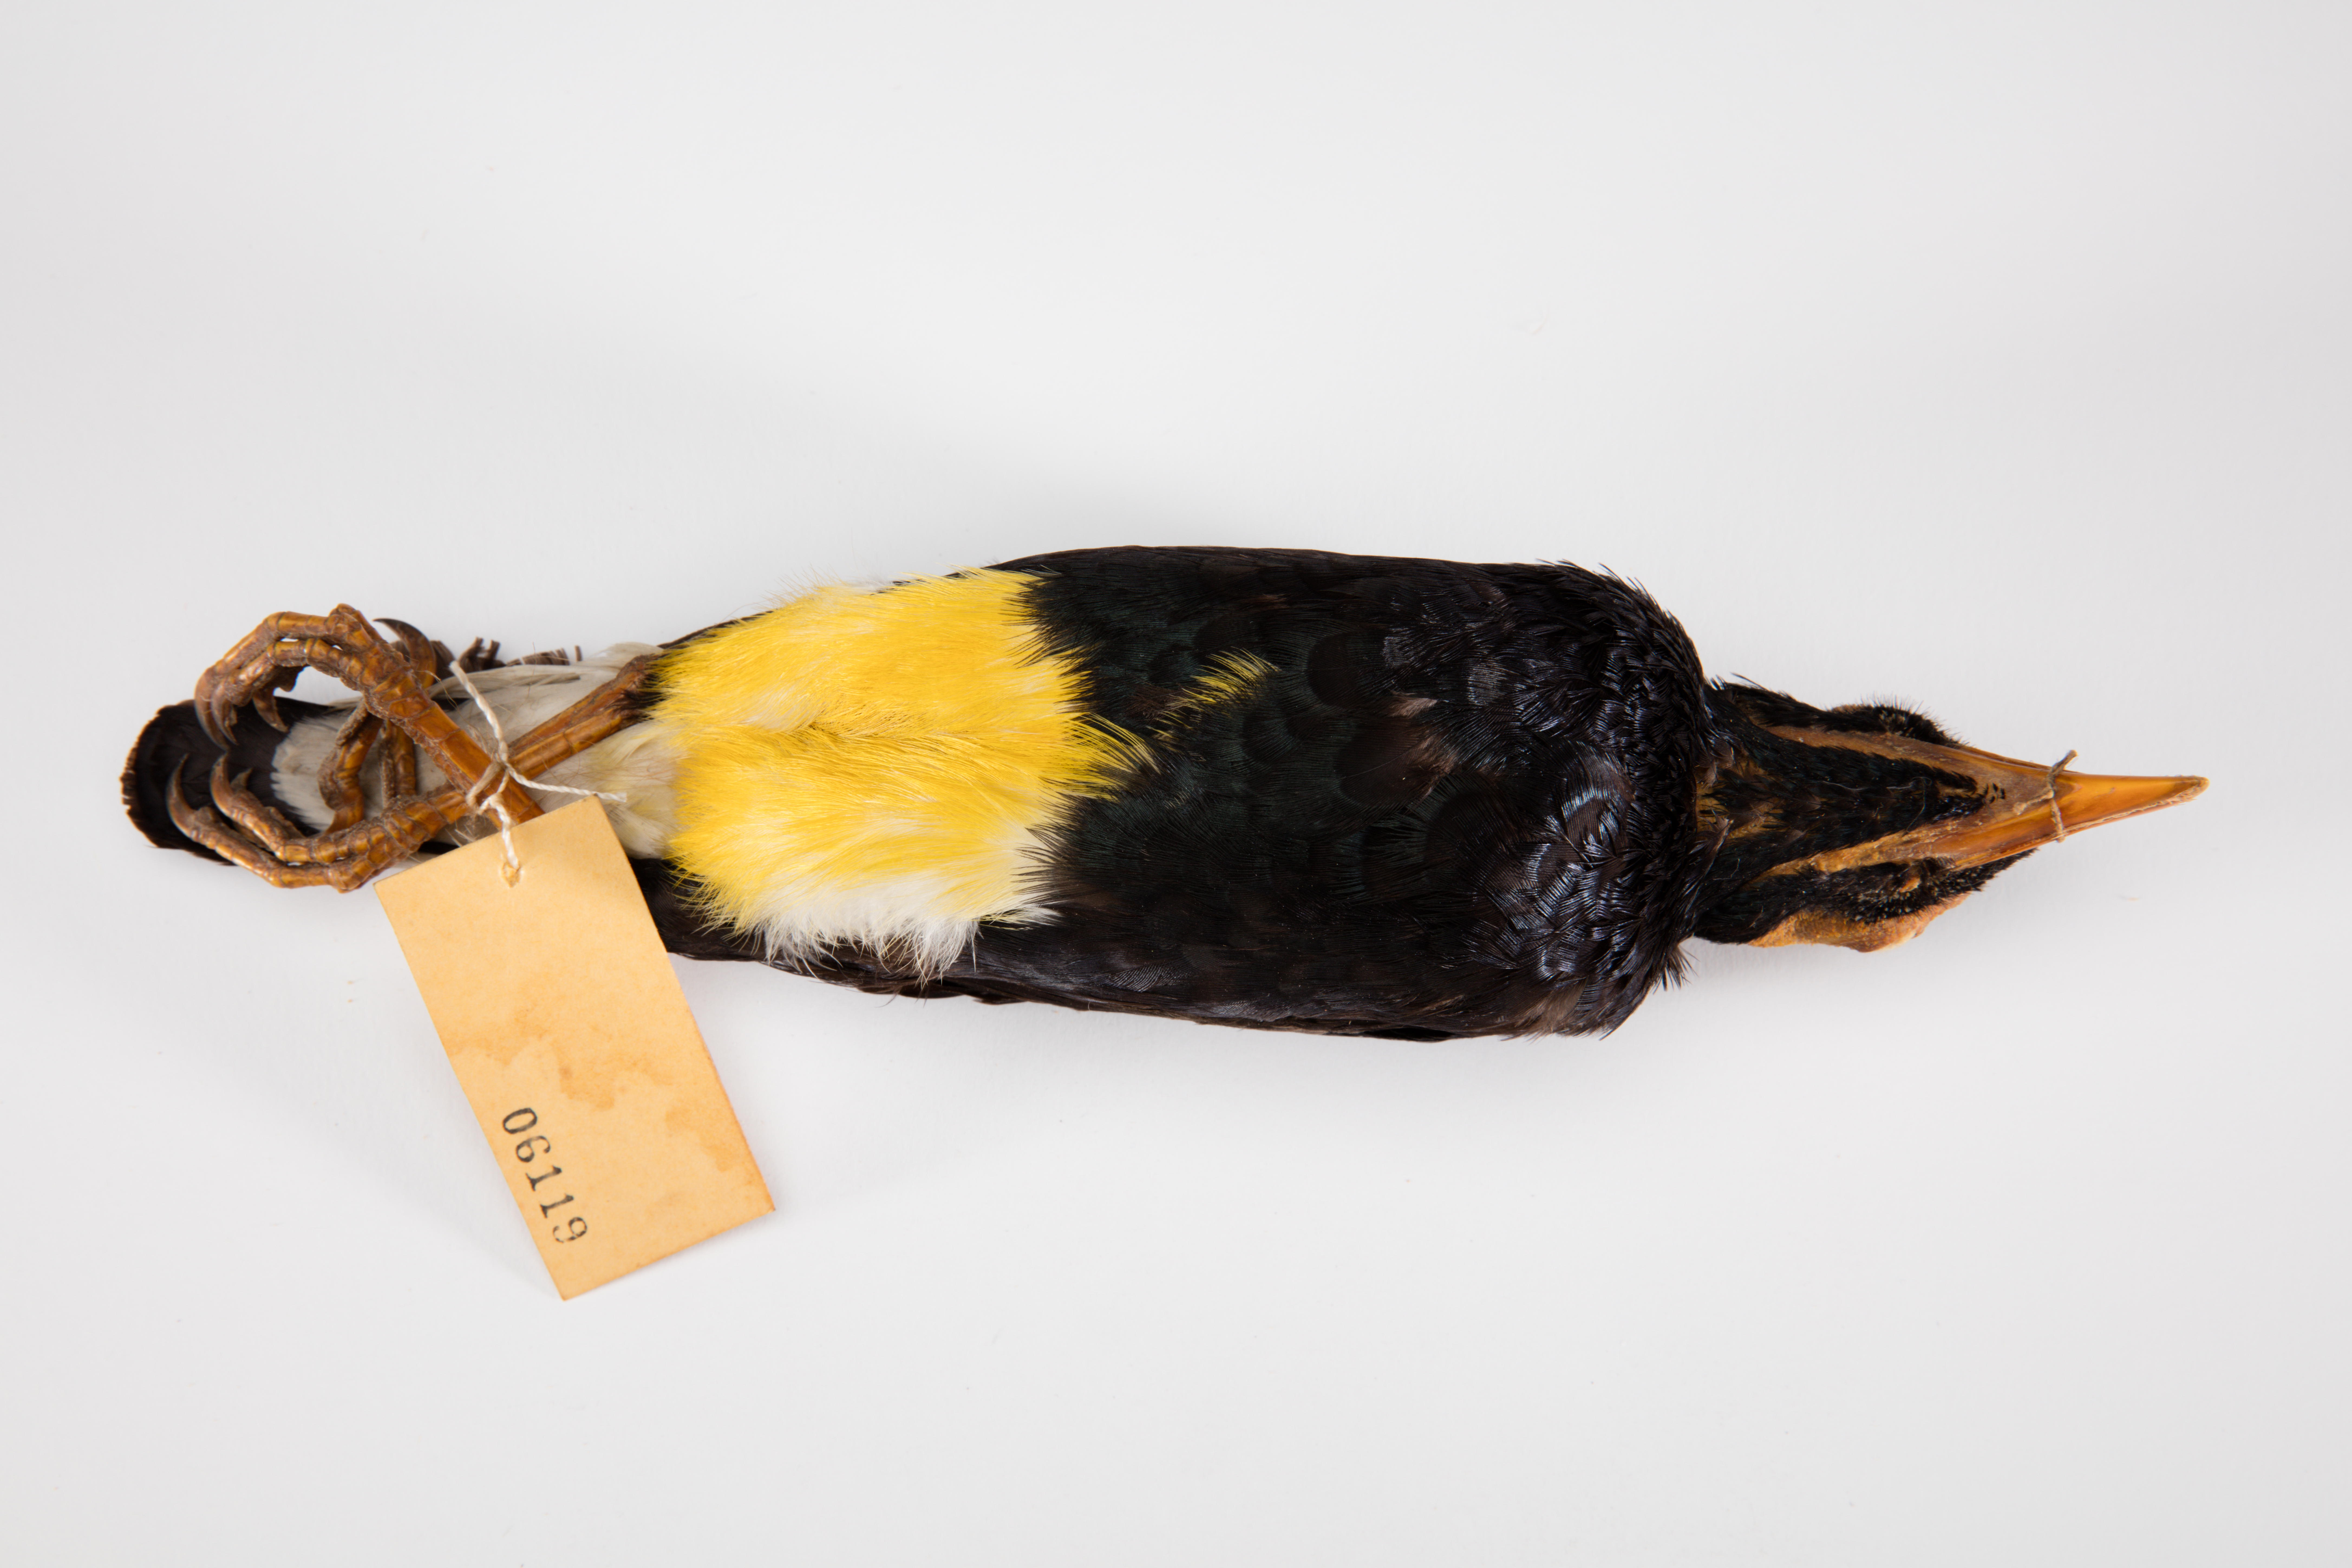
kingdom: Animalia
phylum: Chordata
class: Aves
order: Passeriformes
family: Sturnidae
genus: Mino
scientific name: Mino dumontii
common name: Yellow-faced myna
